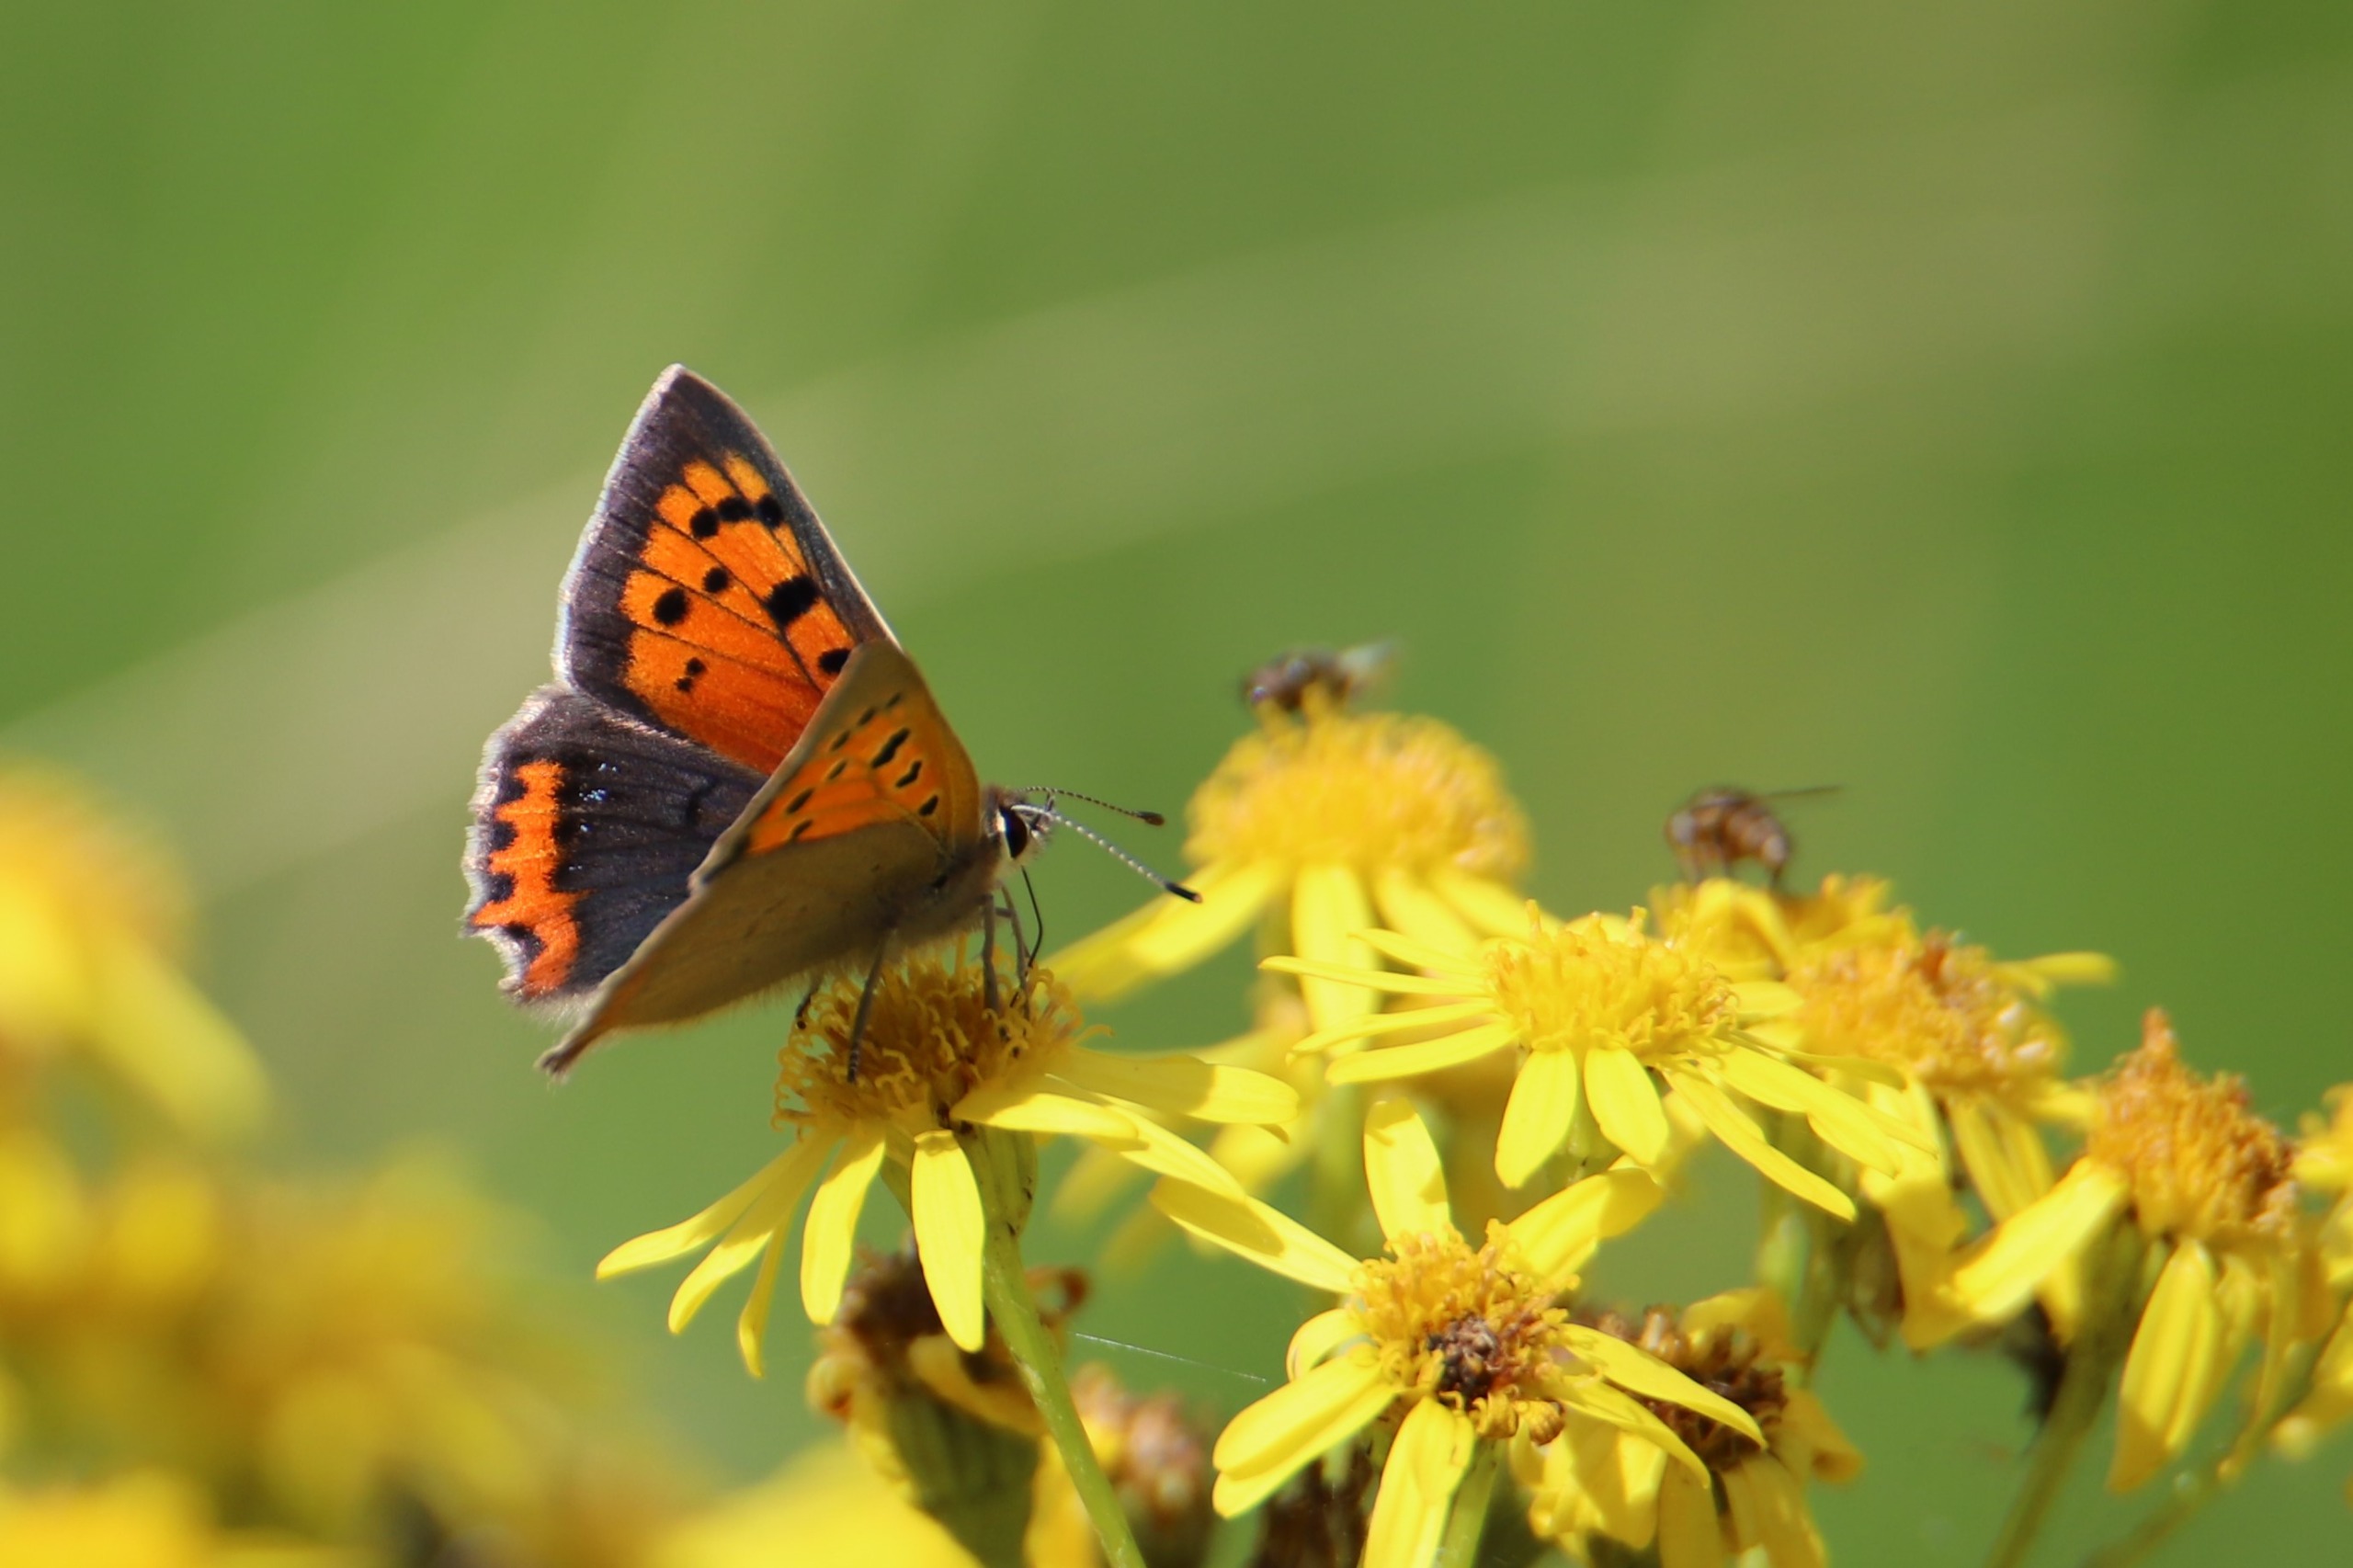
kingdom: Animalia
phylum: Arthropoda
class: Insecta
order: Lepidoptera
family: Lycaenidae
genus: Lycaena
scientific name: Lycaena phlaeas
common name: Lille ildfugl
